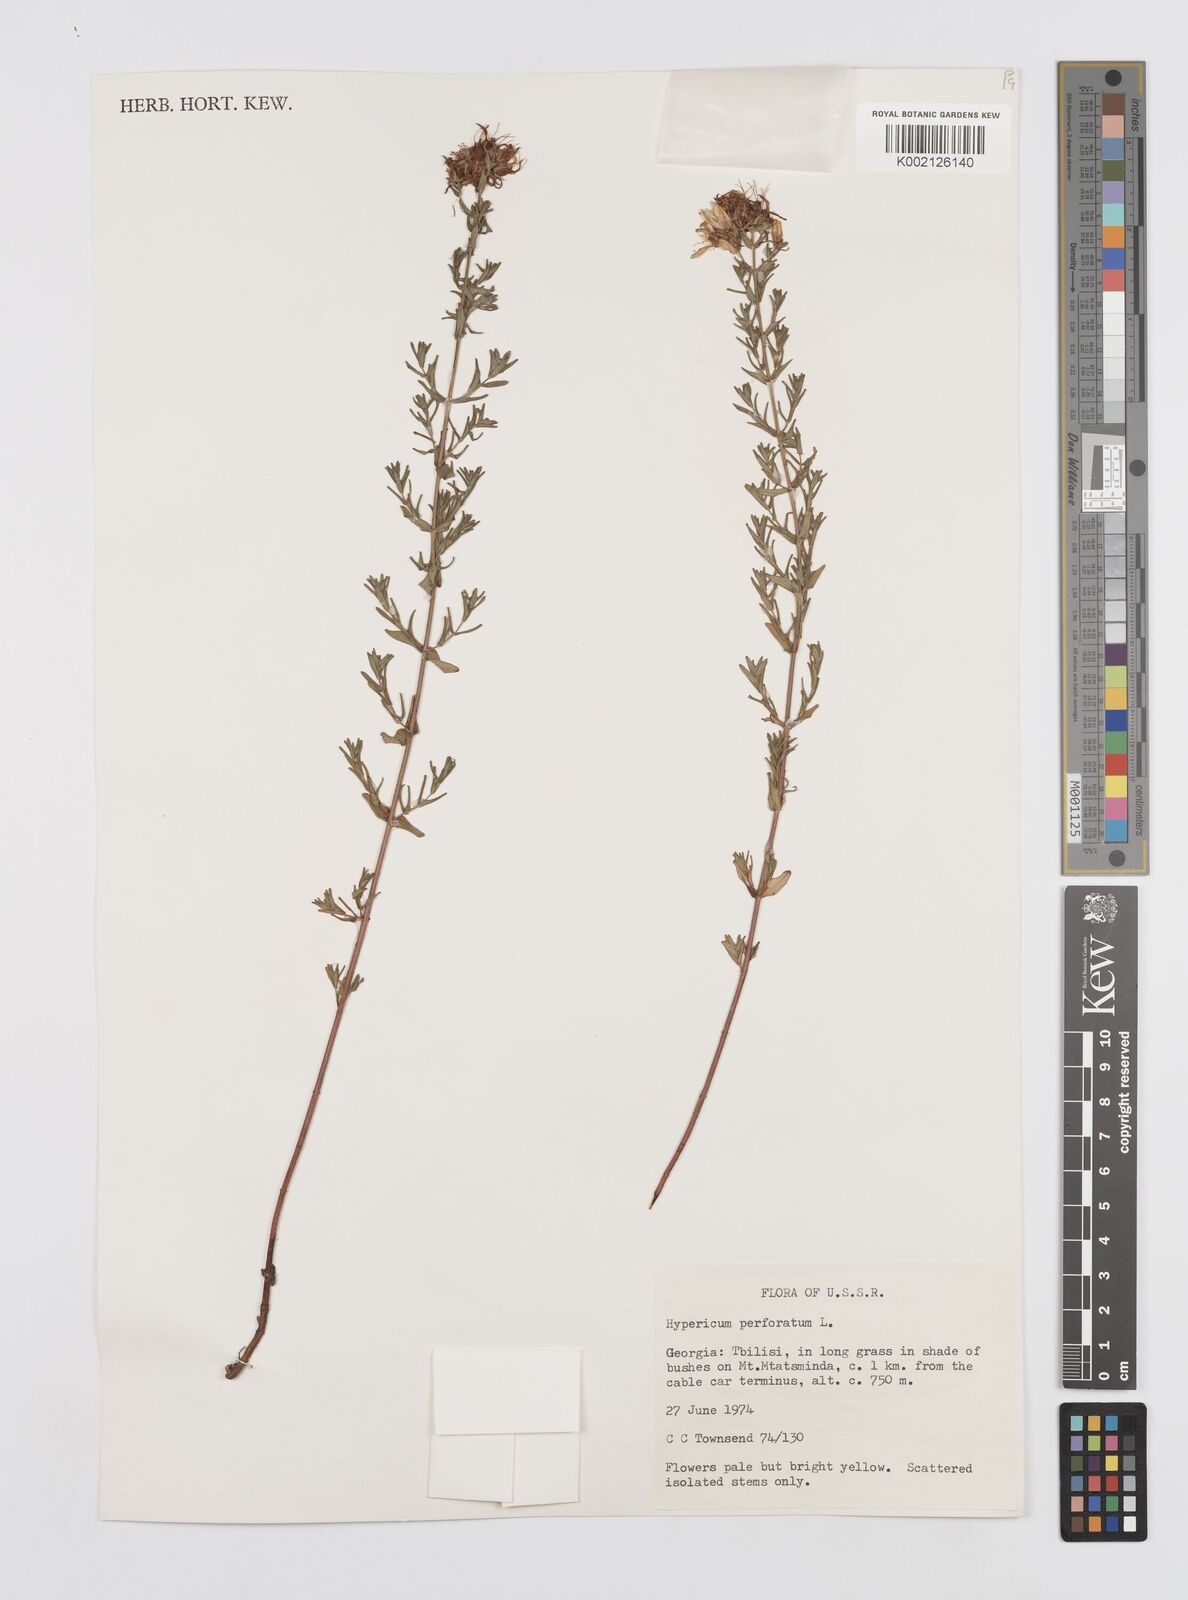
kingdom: Plantae
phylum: Tracheophyta
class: Magnoliopsida
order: Malpighiales
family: Hypericaceae
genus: Hypericum
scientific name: Hypericum perfoliatum
